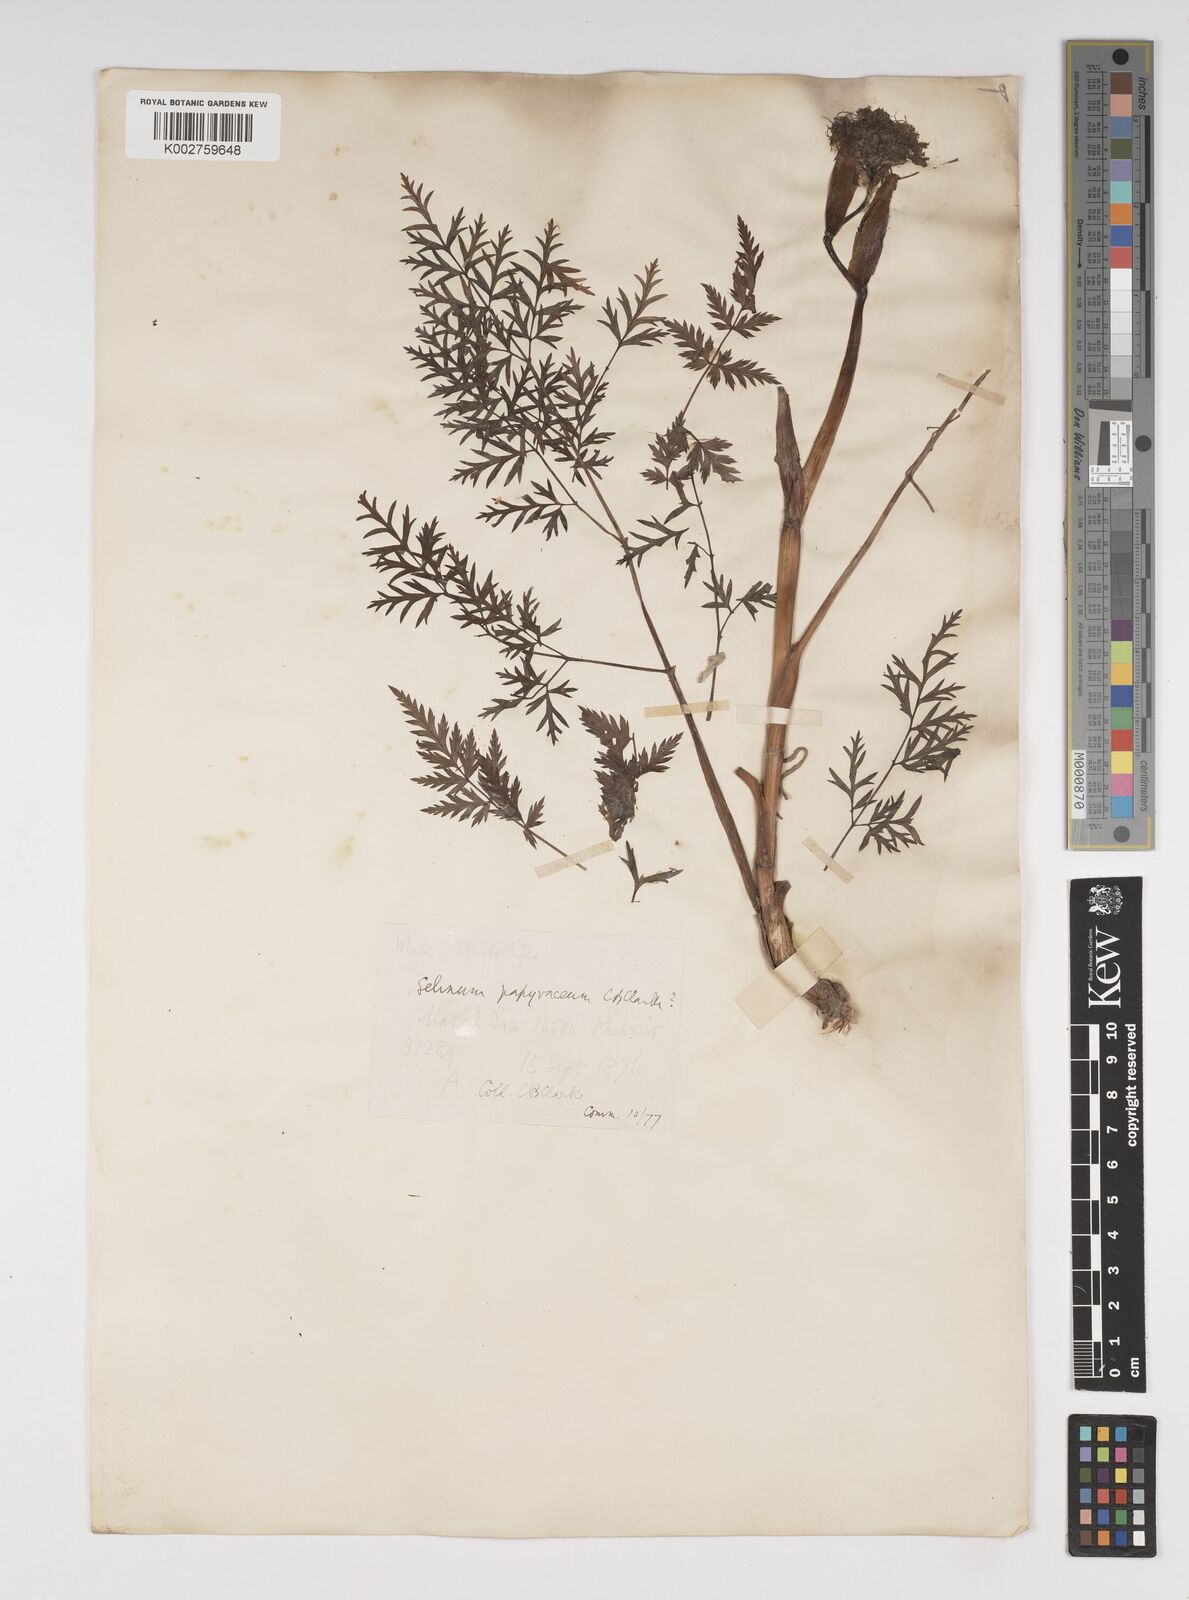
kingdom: Plantae
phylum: Tracheophyta
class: Magnoliopsida
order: Apiales
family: Apiaceae
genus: Conioselinum
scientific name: Conioselinum tataricum
